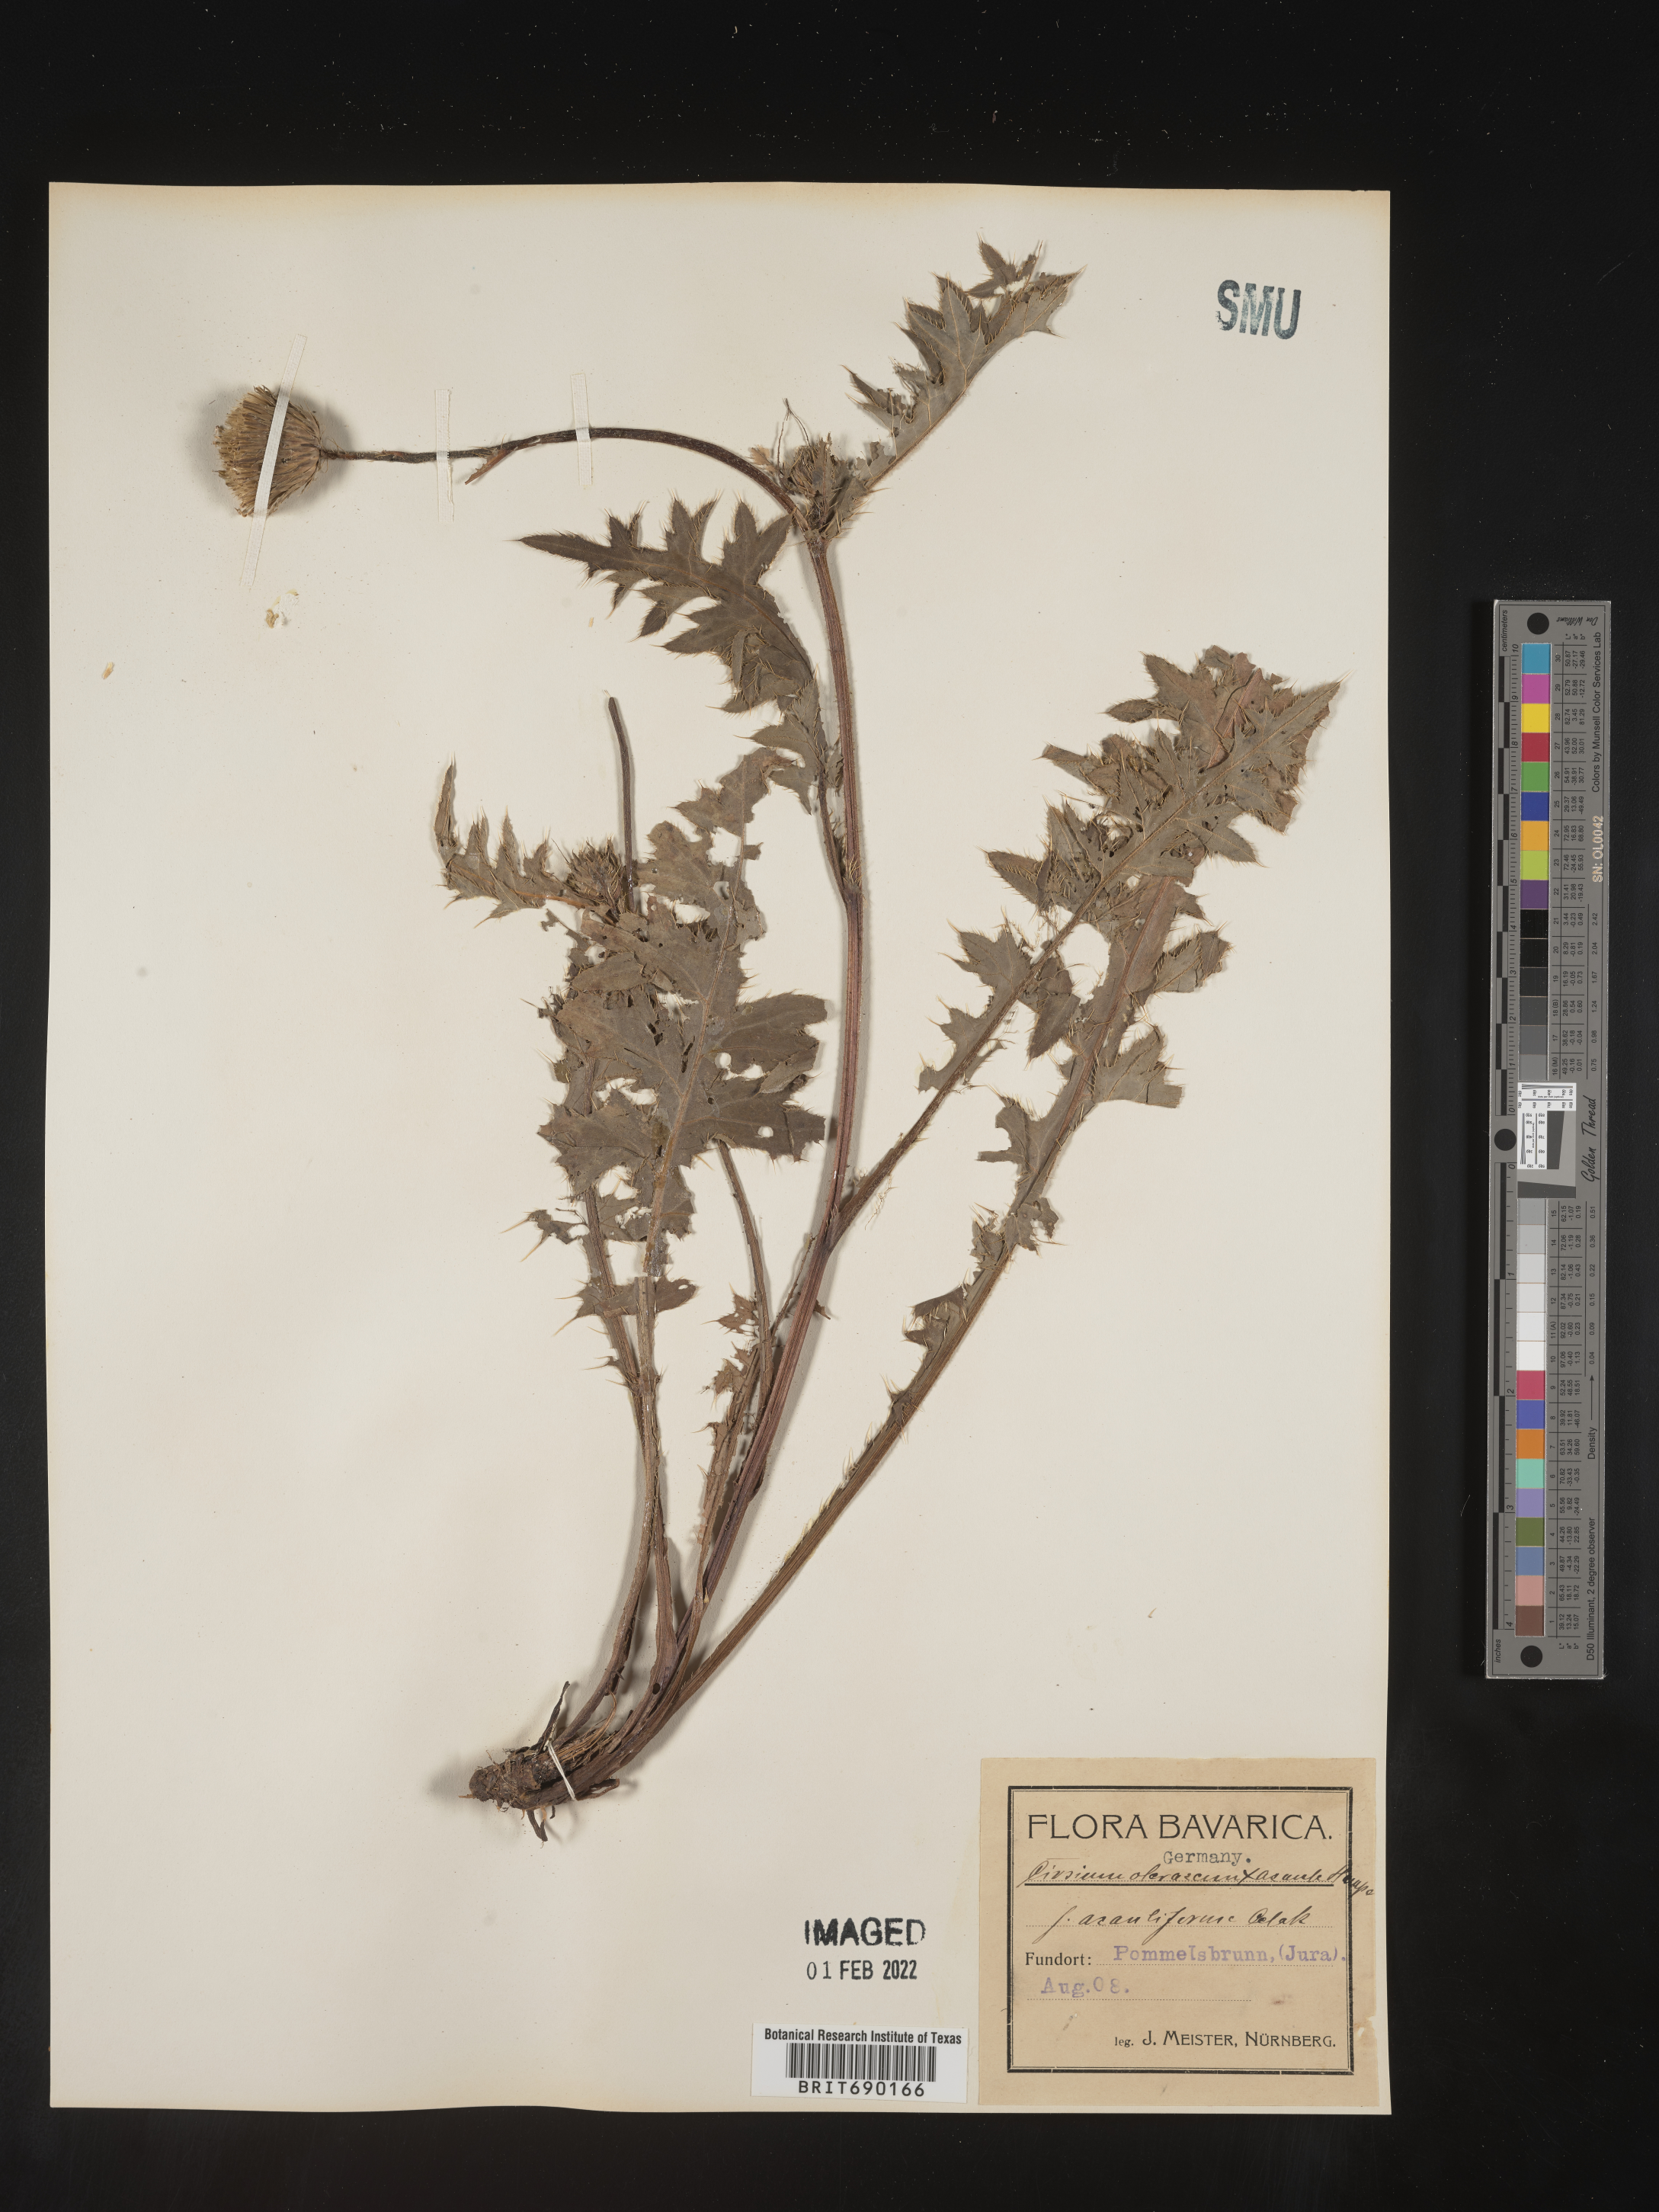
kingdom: Plantae
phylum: Tracheophyta
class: Magnoliopsida
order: Asterales
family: Asteraceae
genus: Cirsium
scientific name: Cirsium
